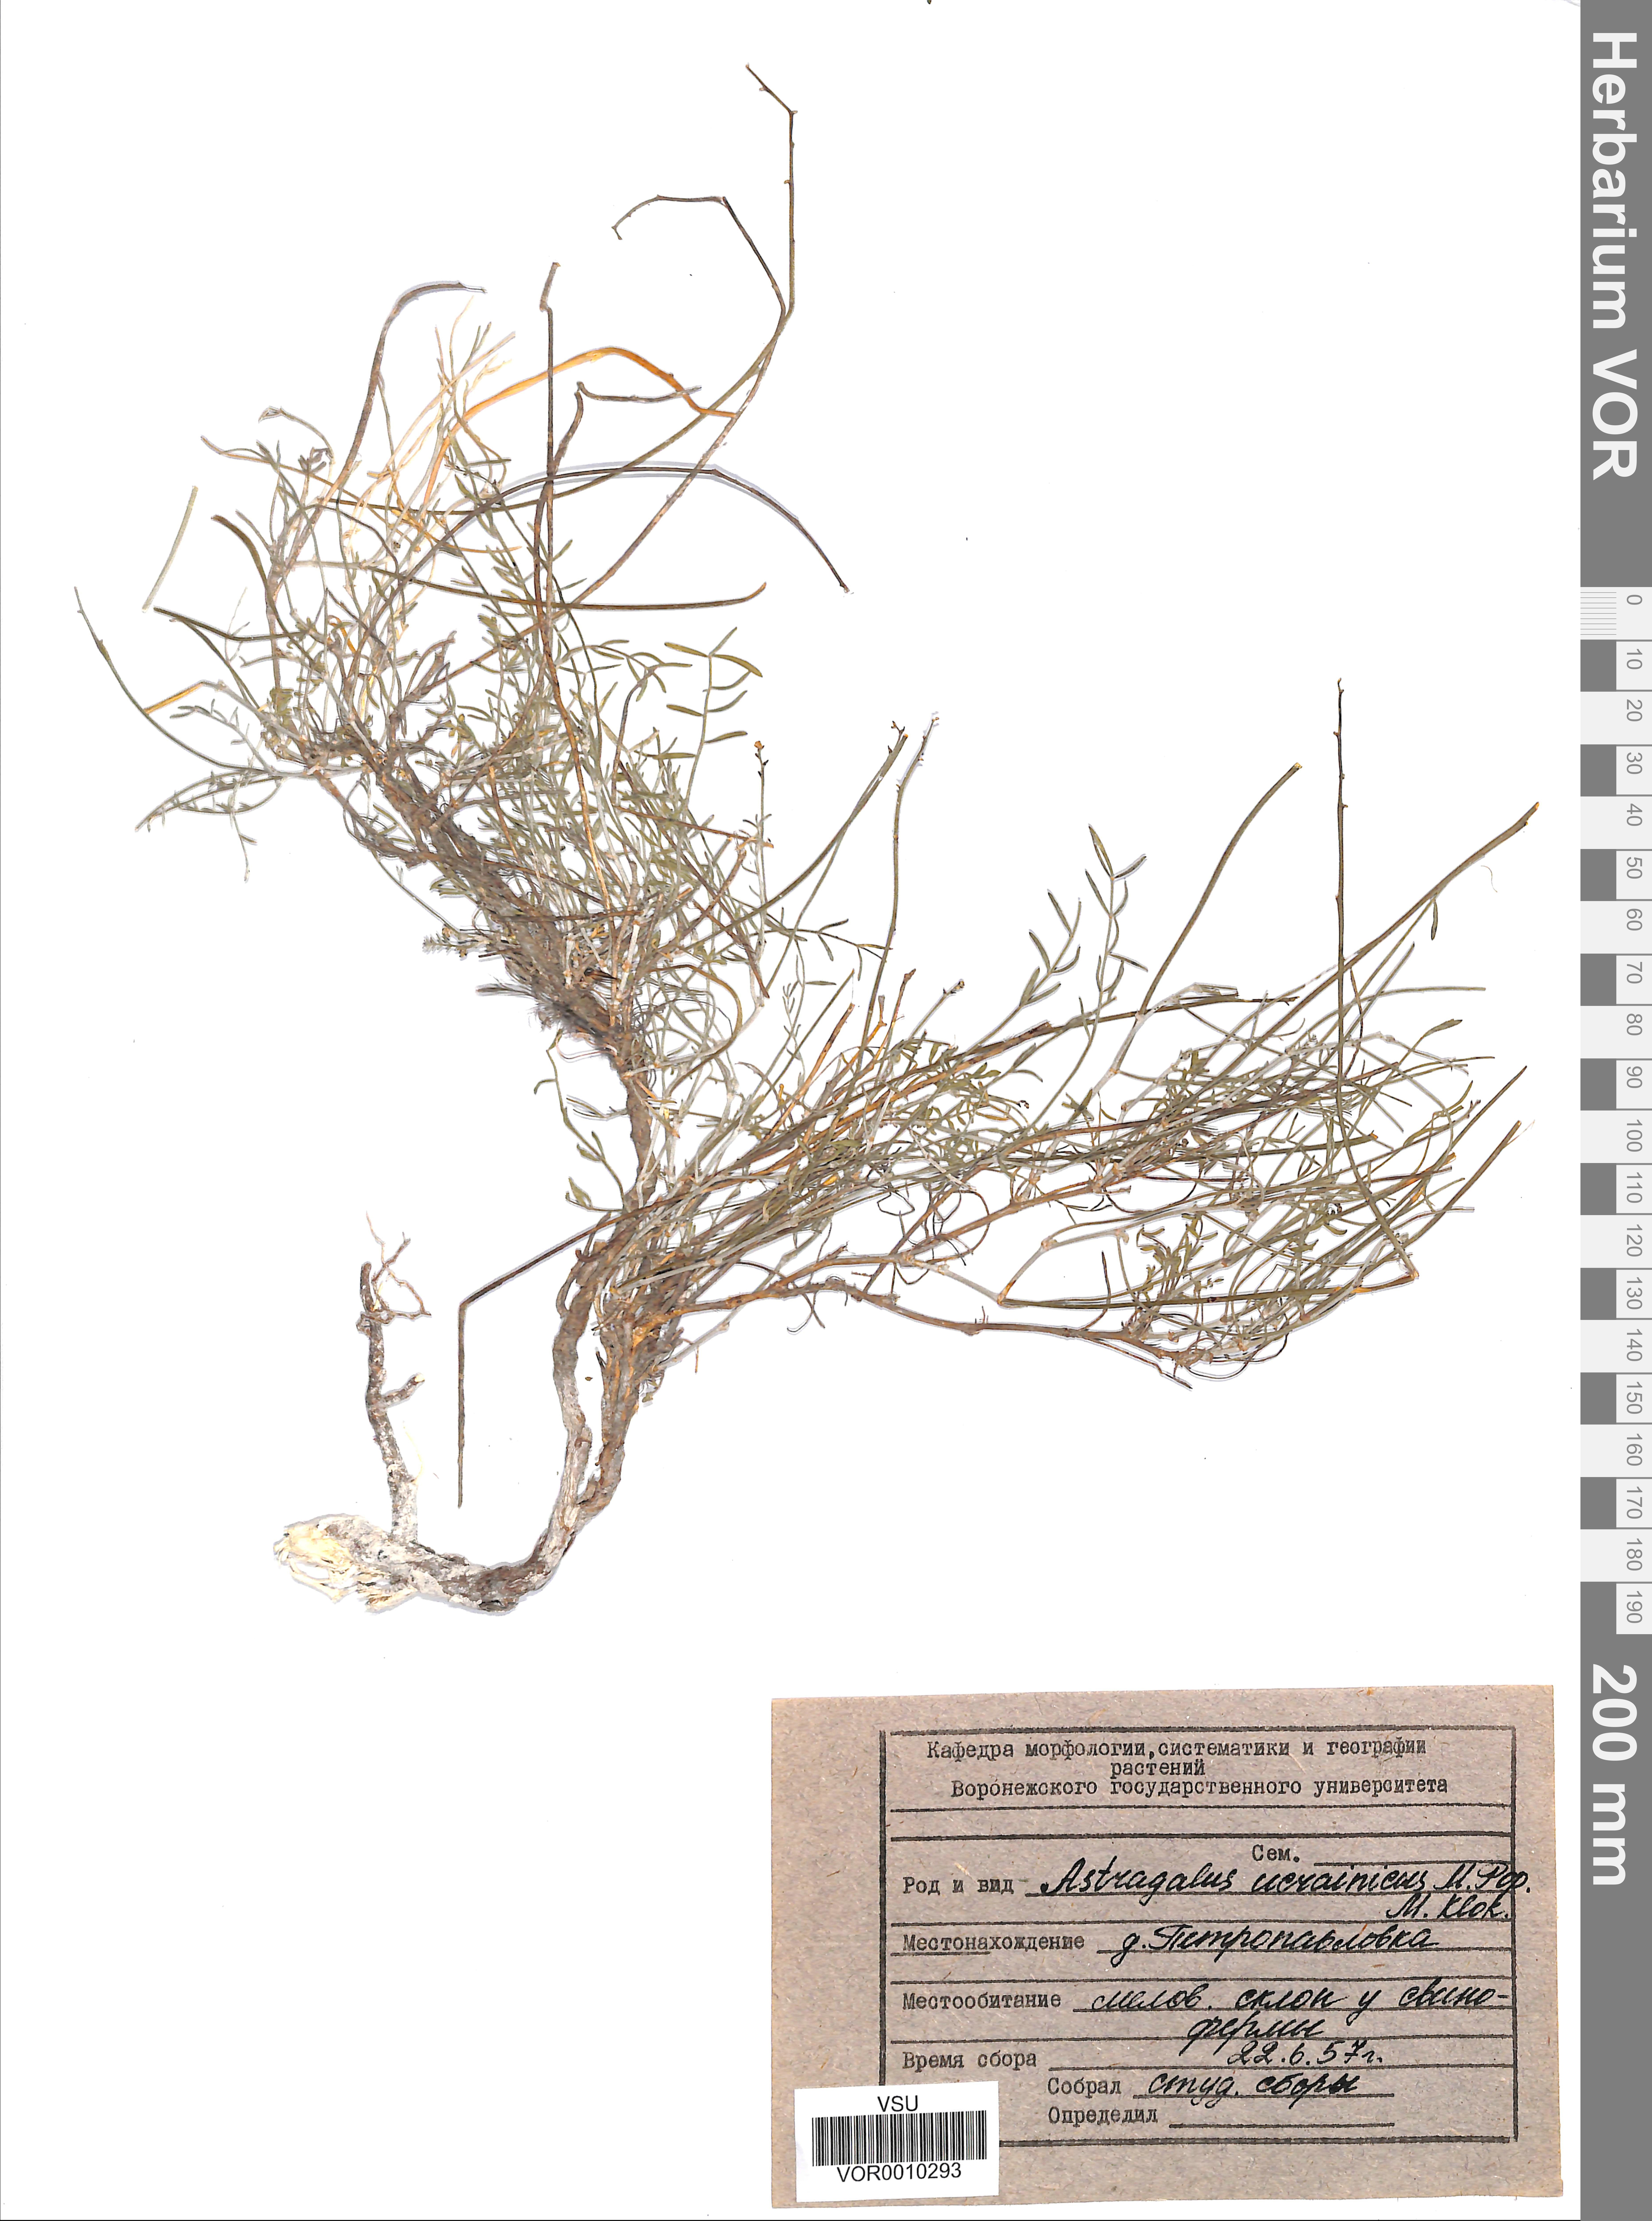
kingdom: Plantae
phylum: Tracheophyta
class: Magnoliopsida
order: Fabales
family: Fabaceae
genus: Astragalus
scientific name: Astragalus ucrainicus
